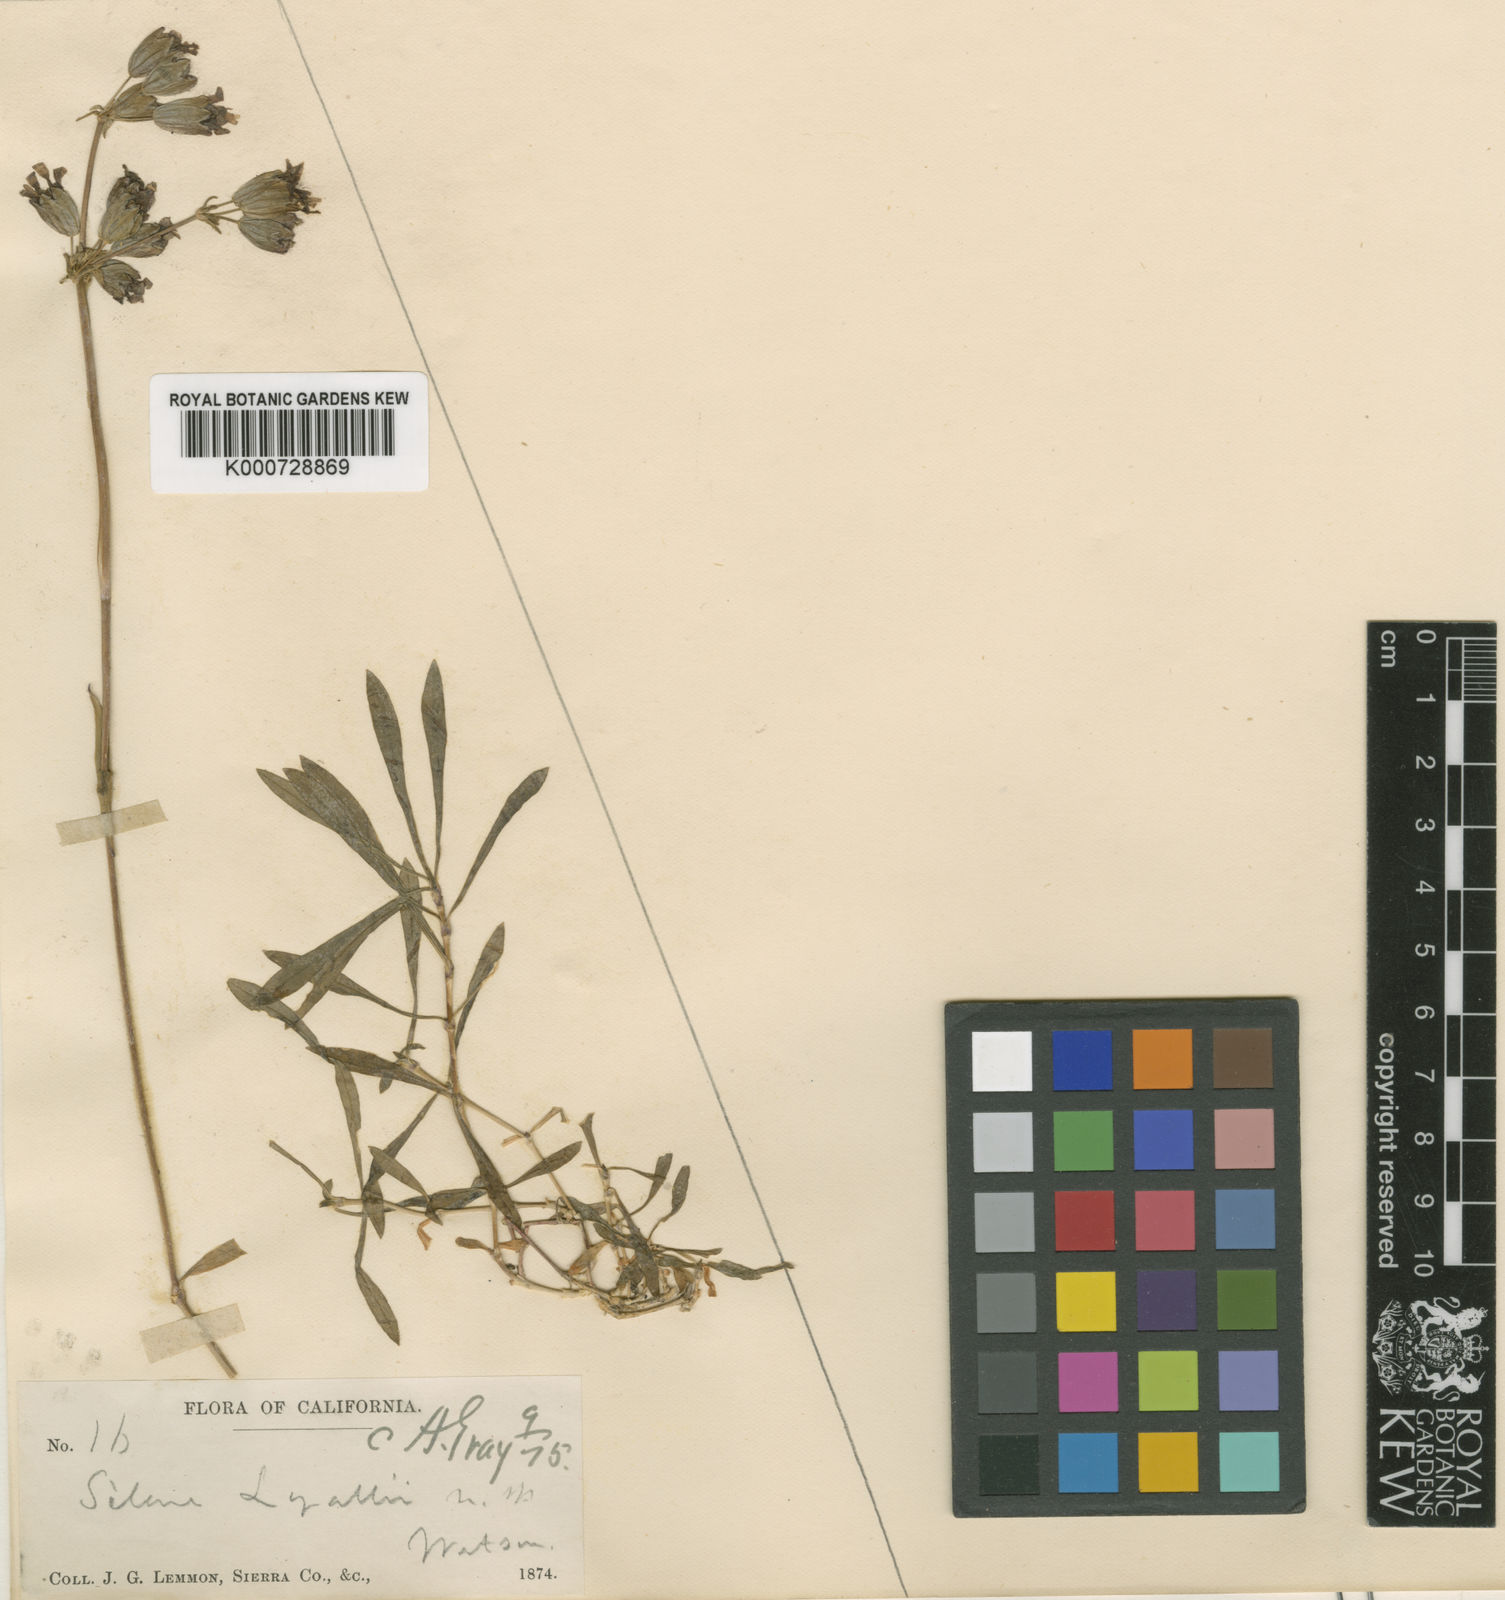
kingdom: Plantae
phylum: Tracheophyta
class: Magnoliopsida
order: Caryophyllales
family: Caryophyllaceae
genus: Silene
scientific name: Silene douglasii
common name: Douglas's catchfly
